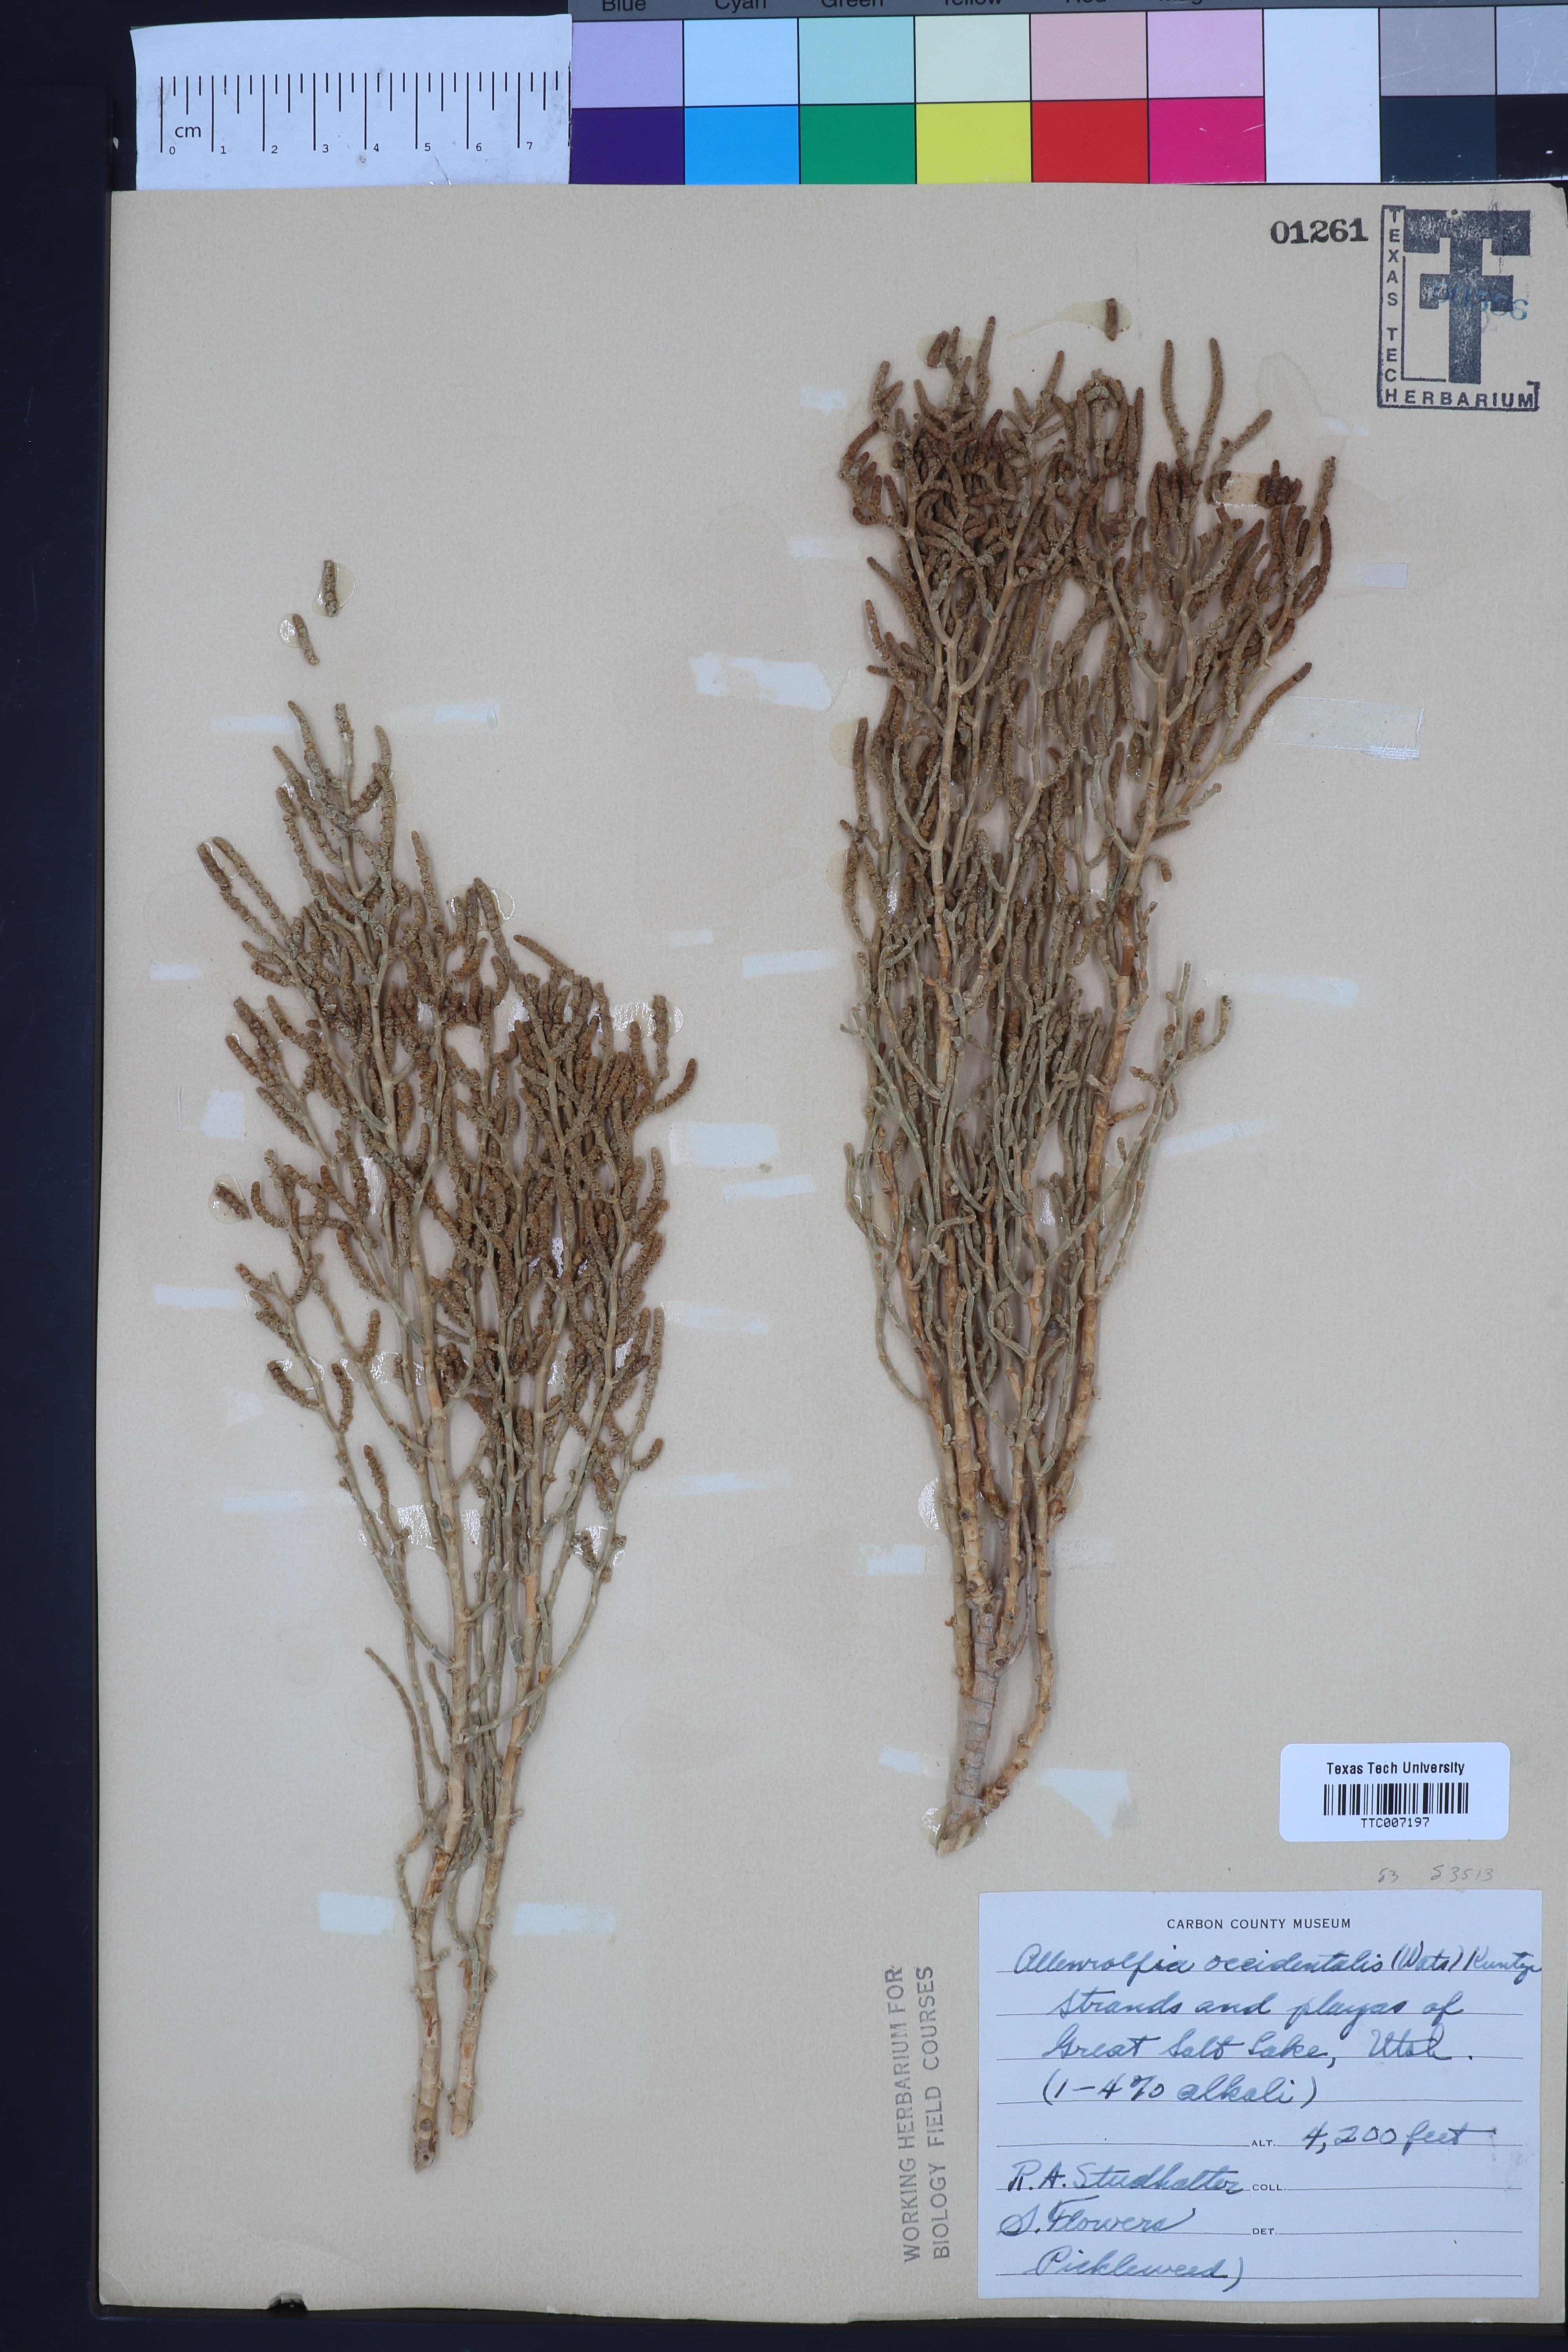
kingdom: Plantae
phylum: Tracheophyta
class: Magnoliopsida
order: Caryophyllales
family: Amaranthaceae
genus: Allenrolfea
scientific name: Allenrolfea occidentalis
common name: Iodine-bush
